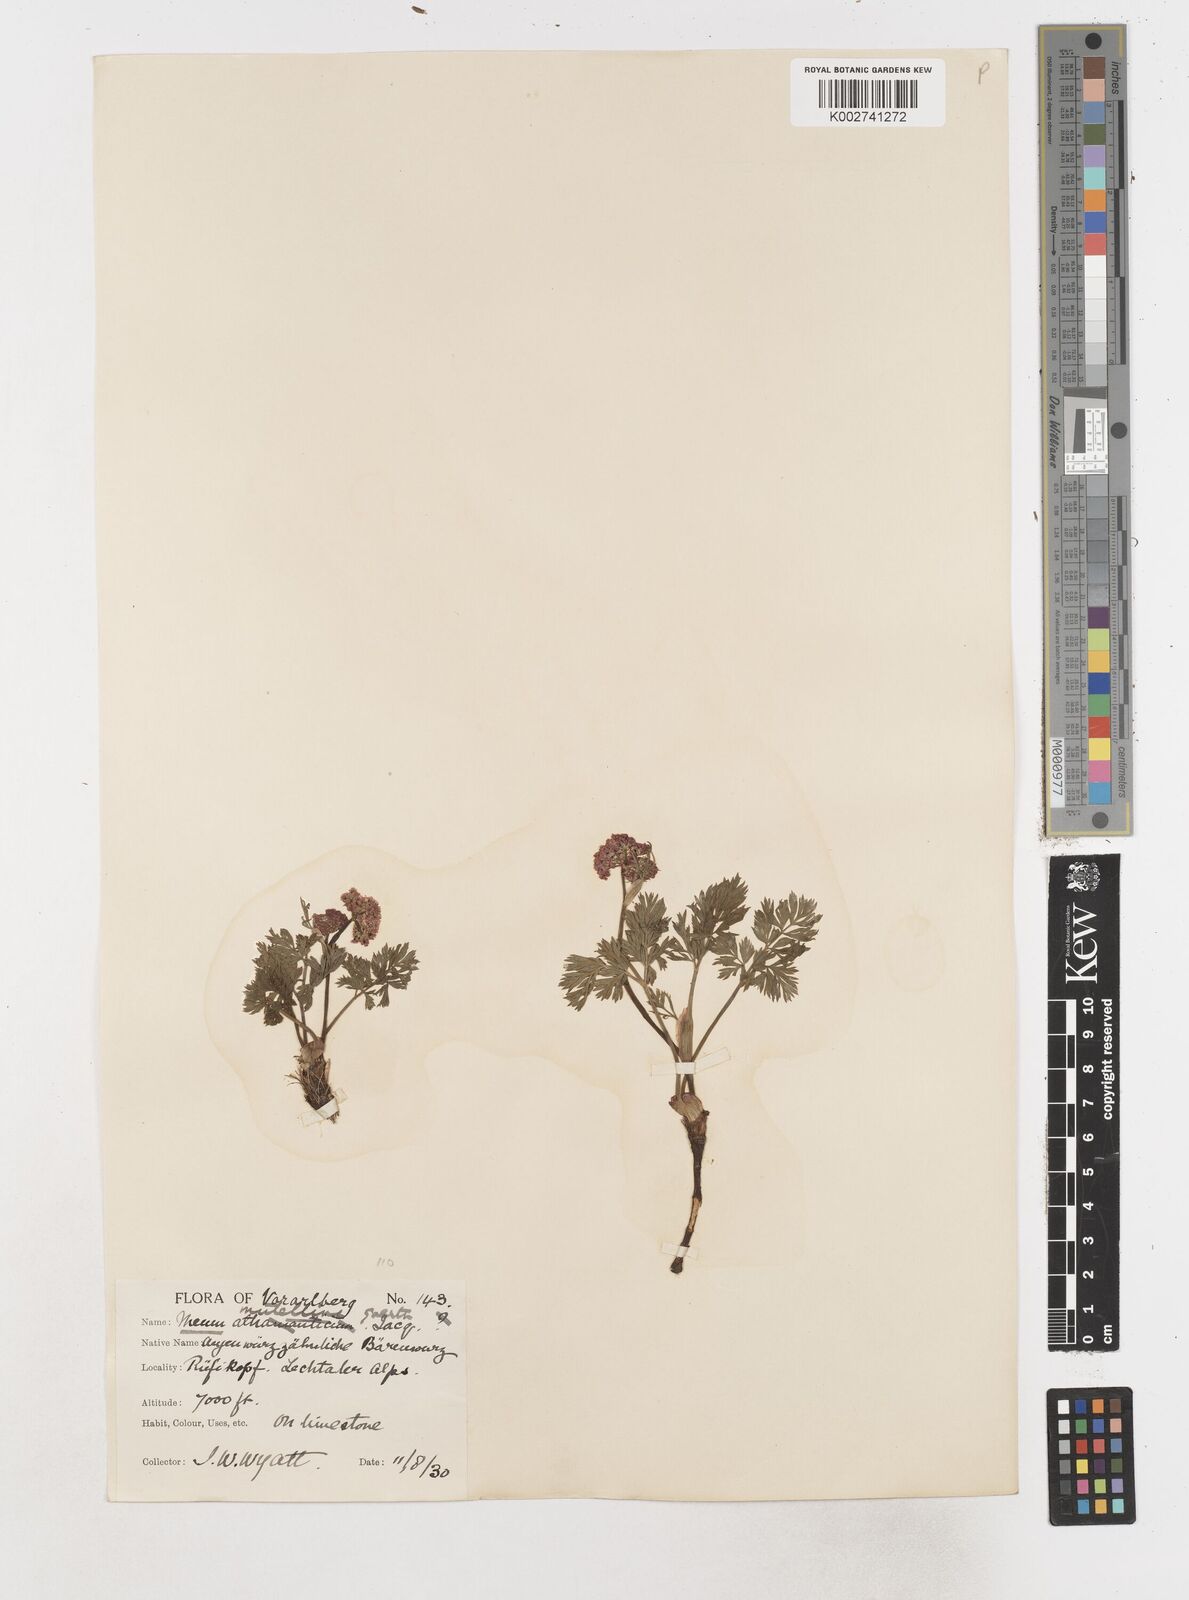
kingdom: Plantae
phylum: Tracheophyta
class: Magnoliopsida
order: Apiales
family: Apiaceae
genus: Mutellina
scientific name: Mutellina adonidifolia
